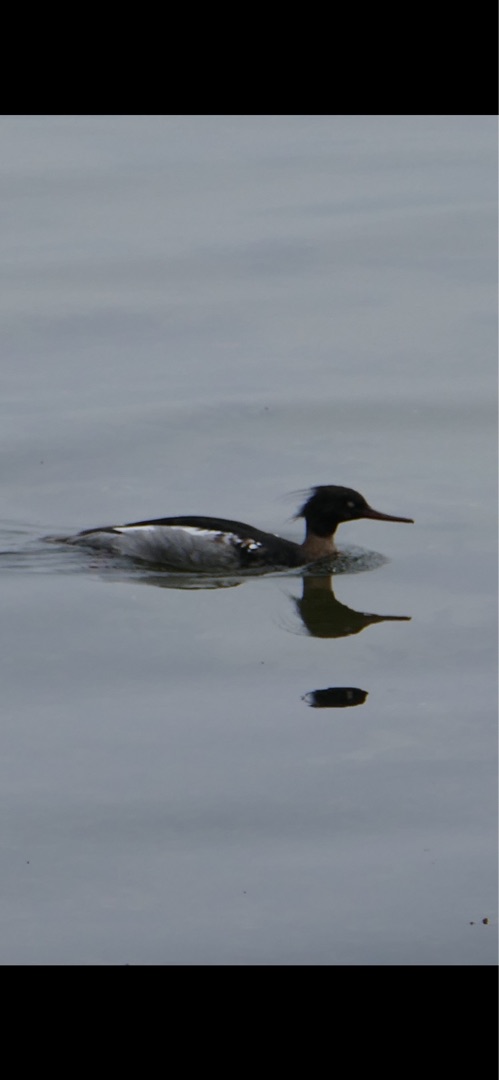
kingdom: Animalia
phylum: Chordata
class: Aves
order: Anseriformes
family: Anatidae
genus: Mergus
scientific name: Mergus serrator
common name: Toppet skallesluger
